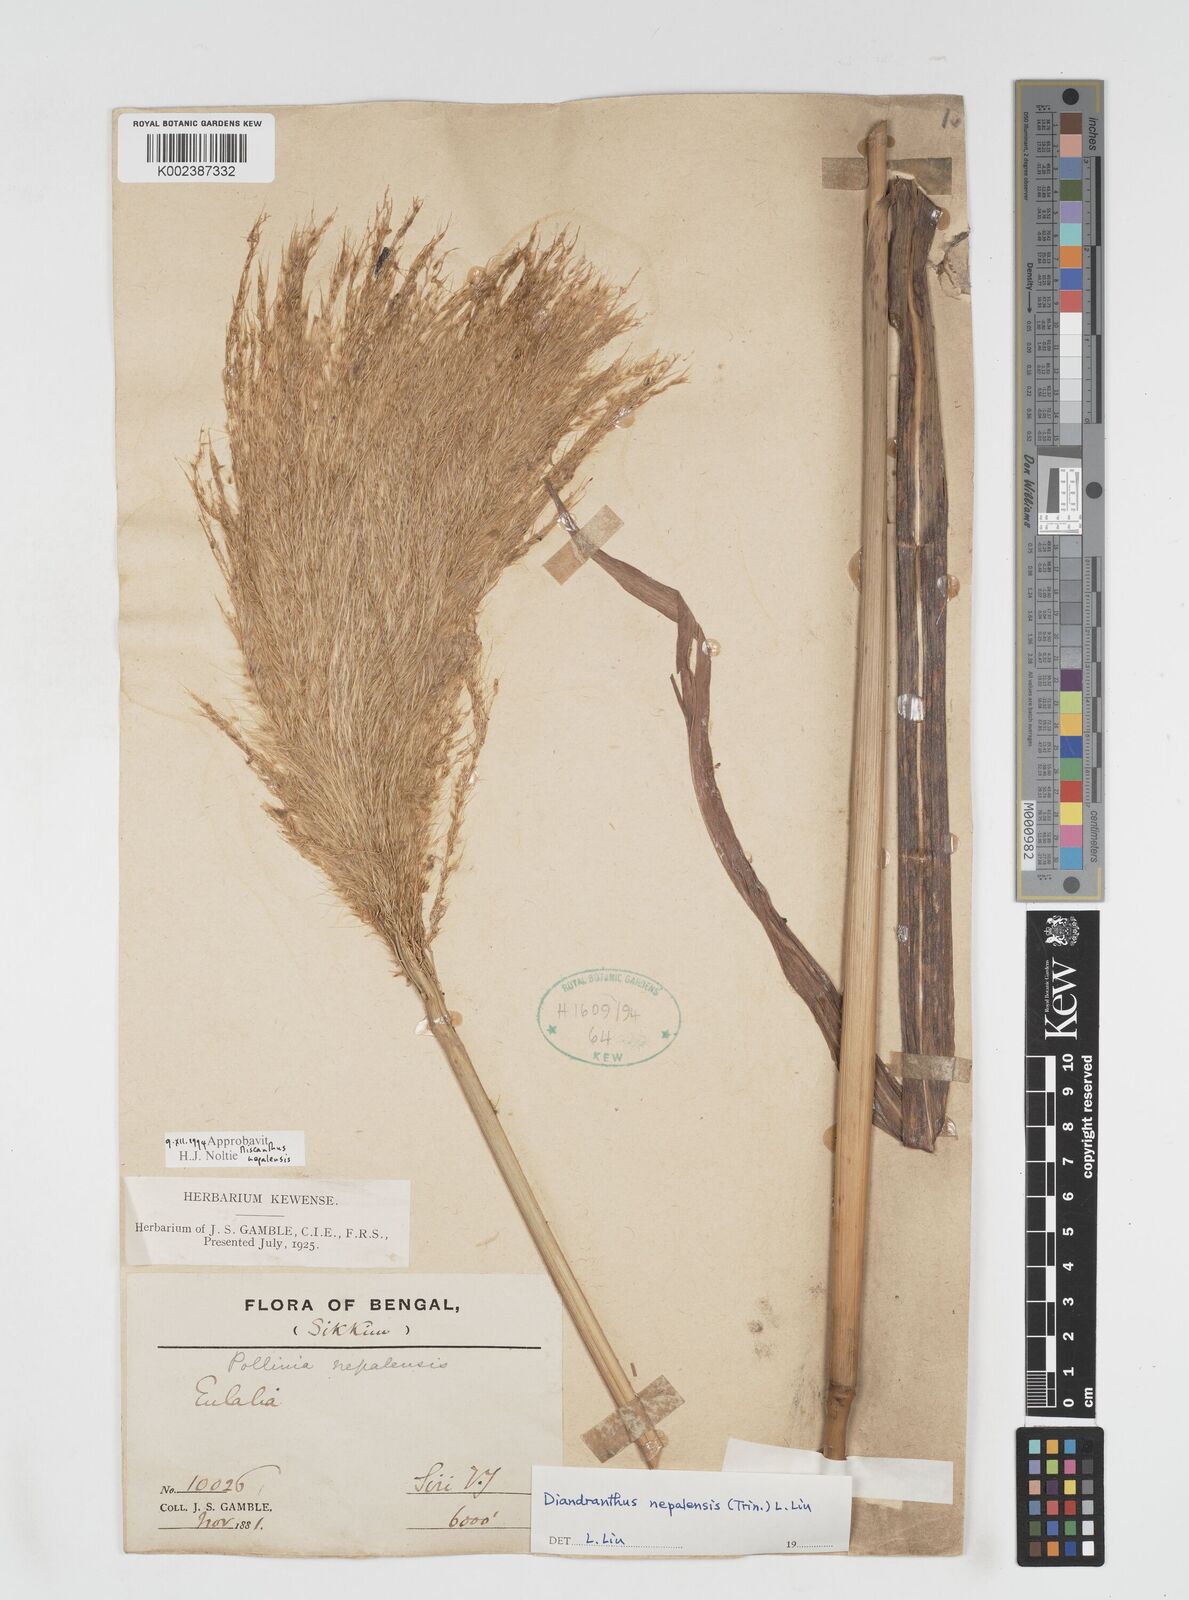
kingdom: Plantae
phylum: Tracheophyta
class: Liliopsida
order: Poales
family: Poaceae
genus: Miscanthus
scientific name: Miscanthus nepalensis
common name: Nepal silver grass
